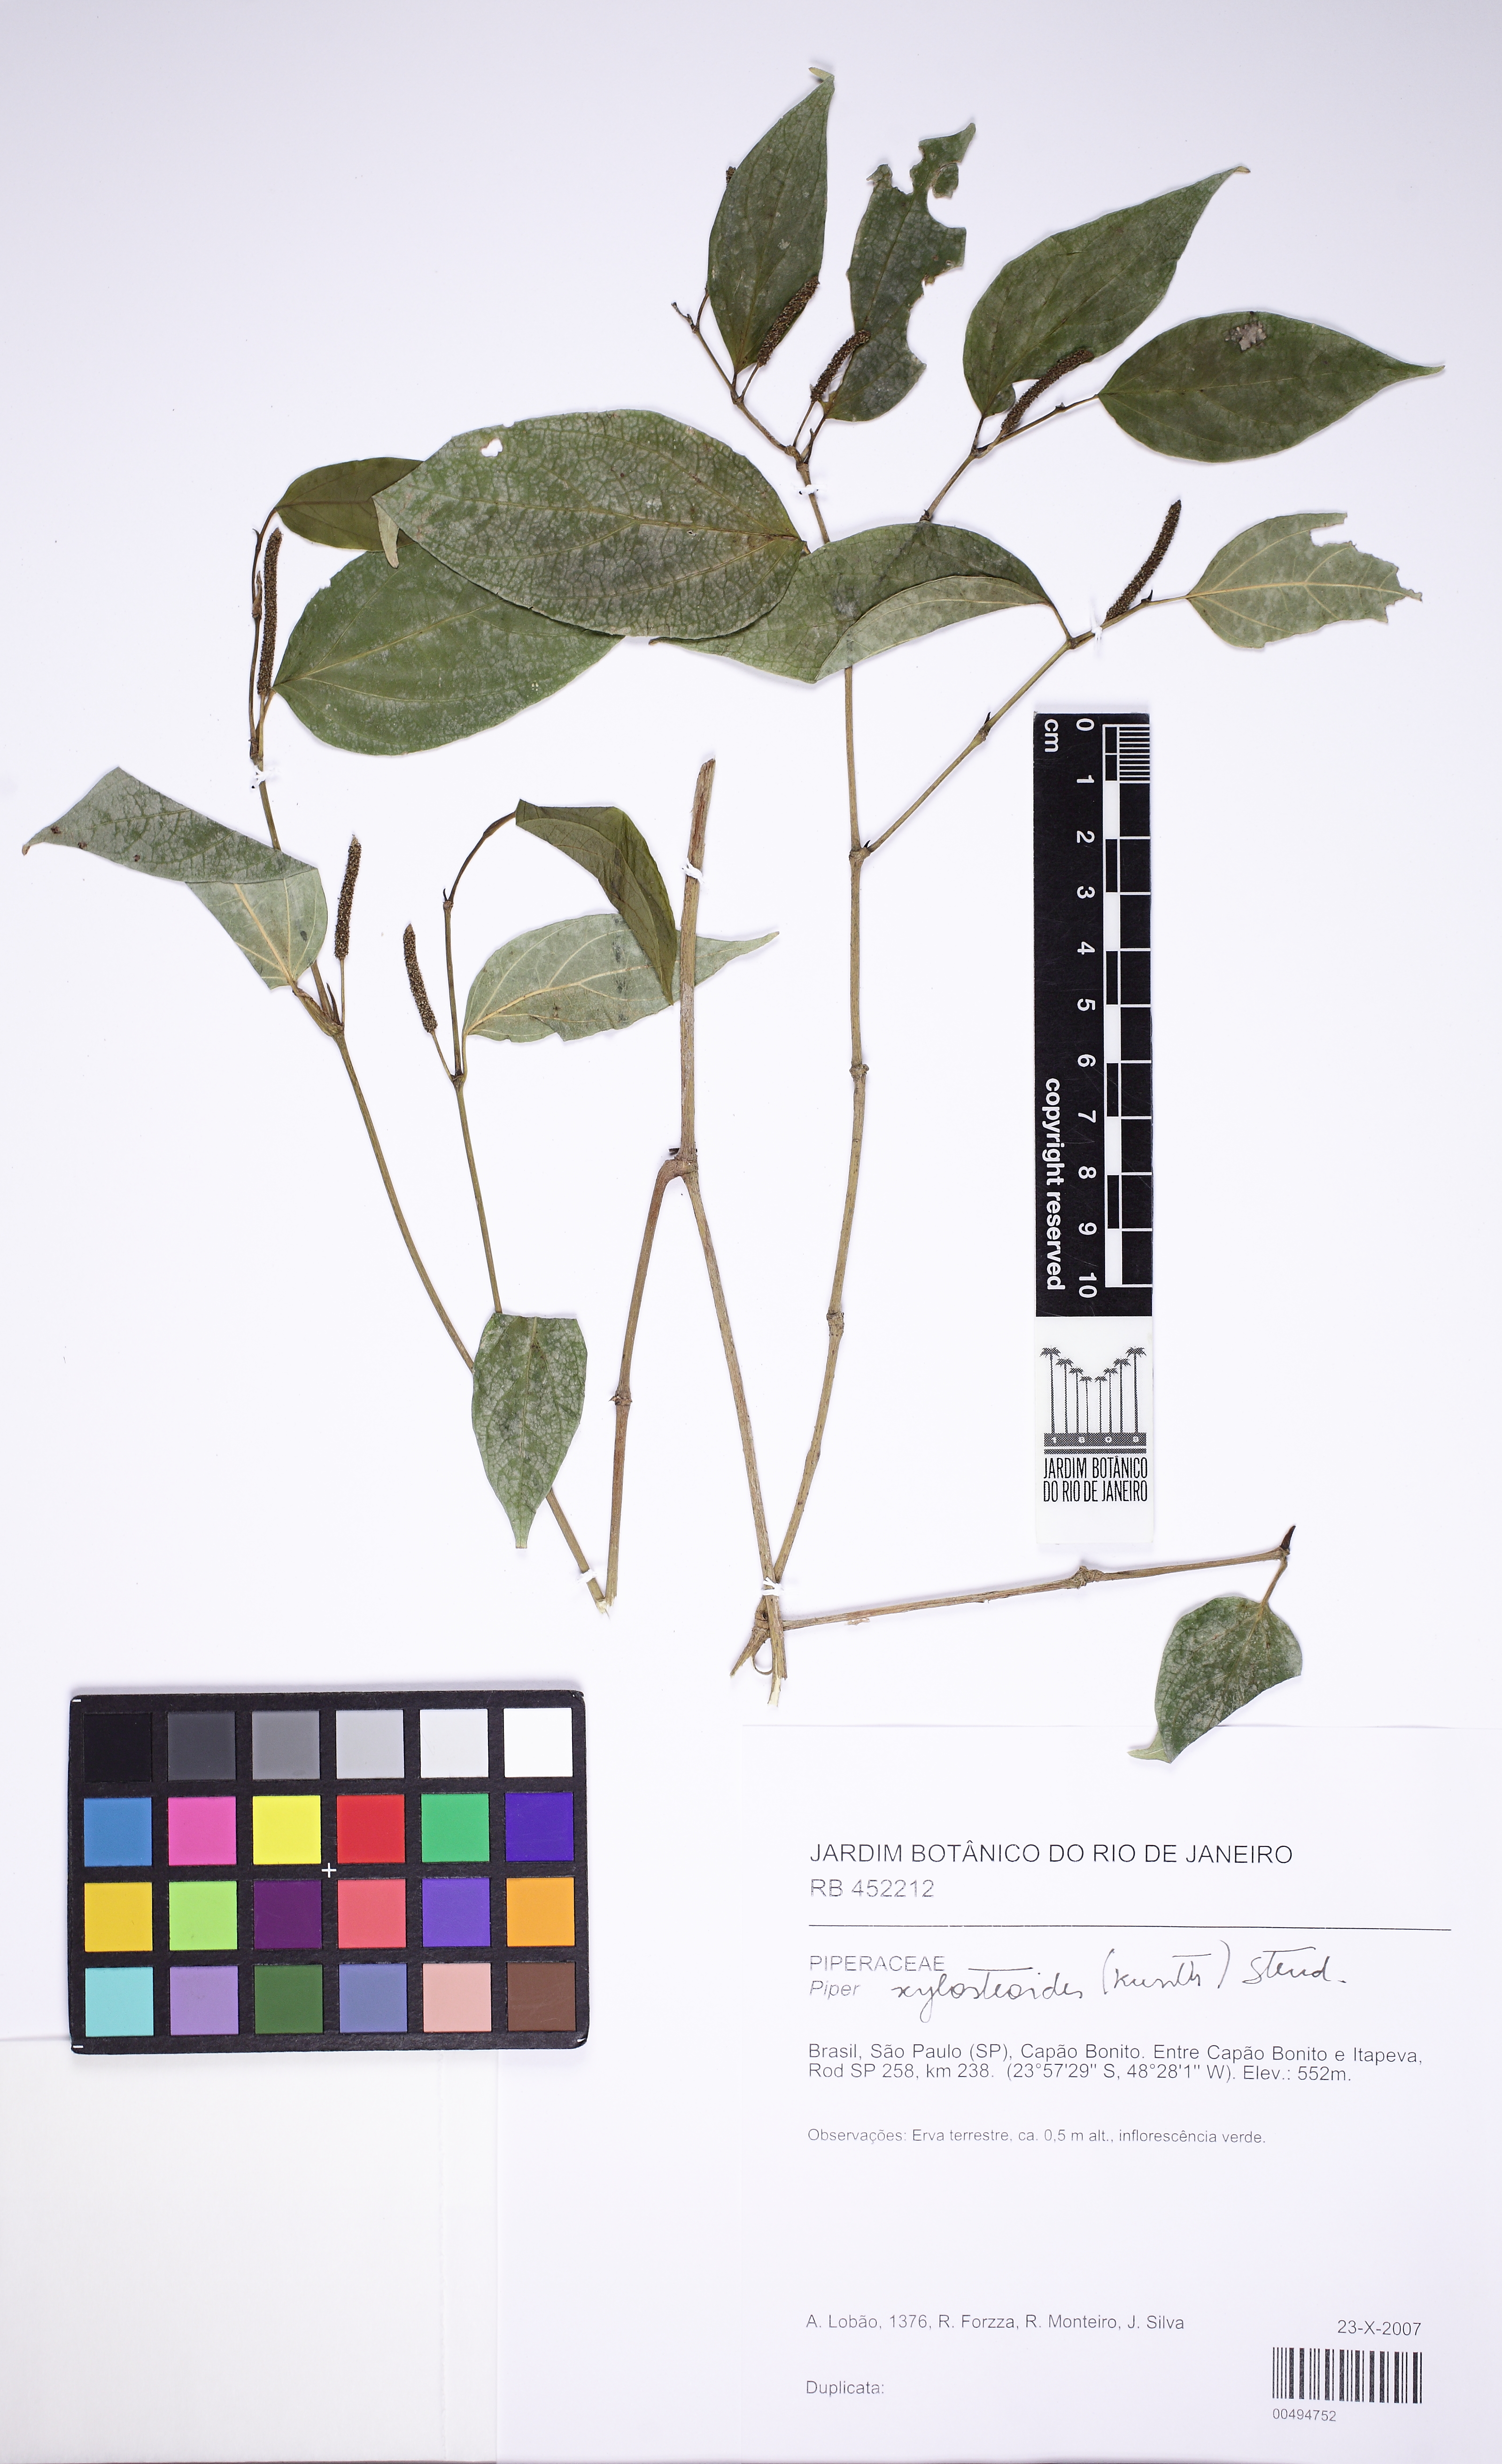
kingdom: Plantae
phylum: Tracheophyta
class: Magnoliopsida
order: Piperales
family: Piperaceae
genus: Piper
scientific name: Piper xylosteoides
